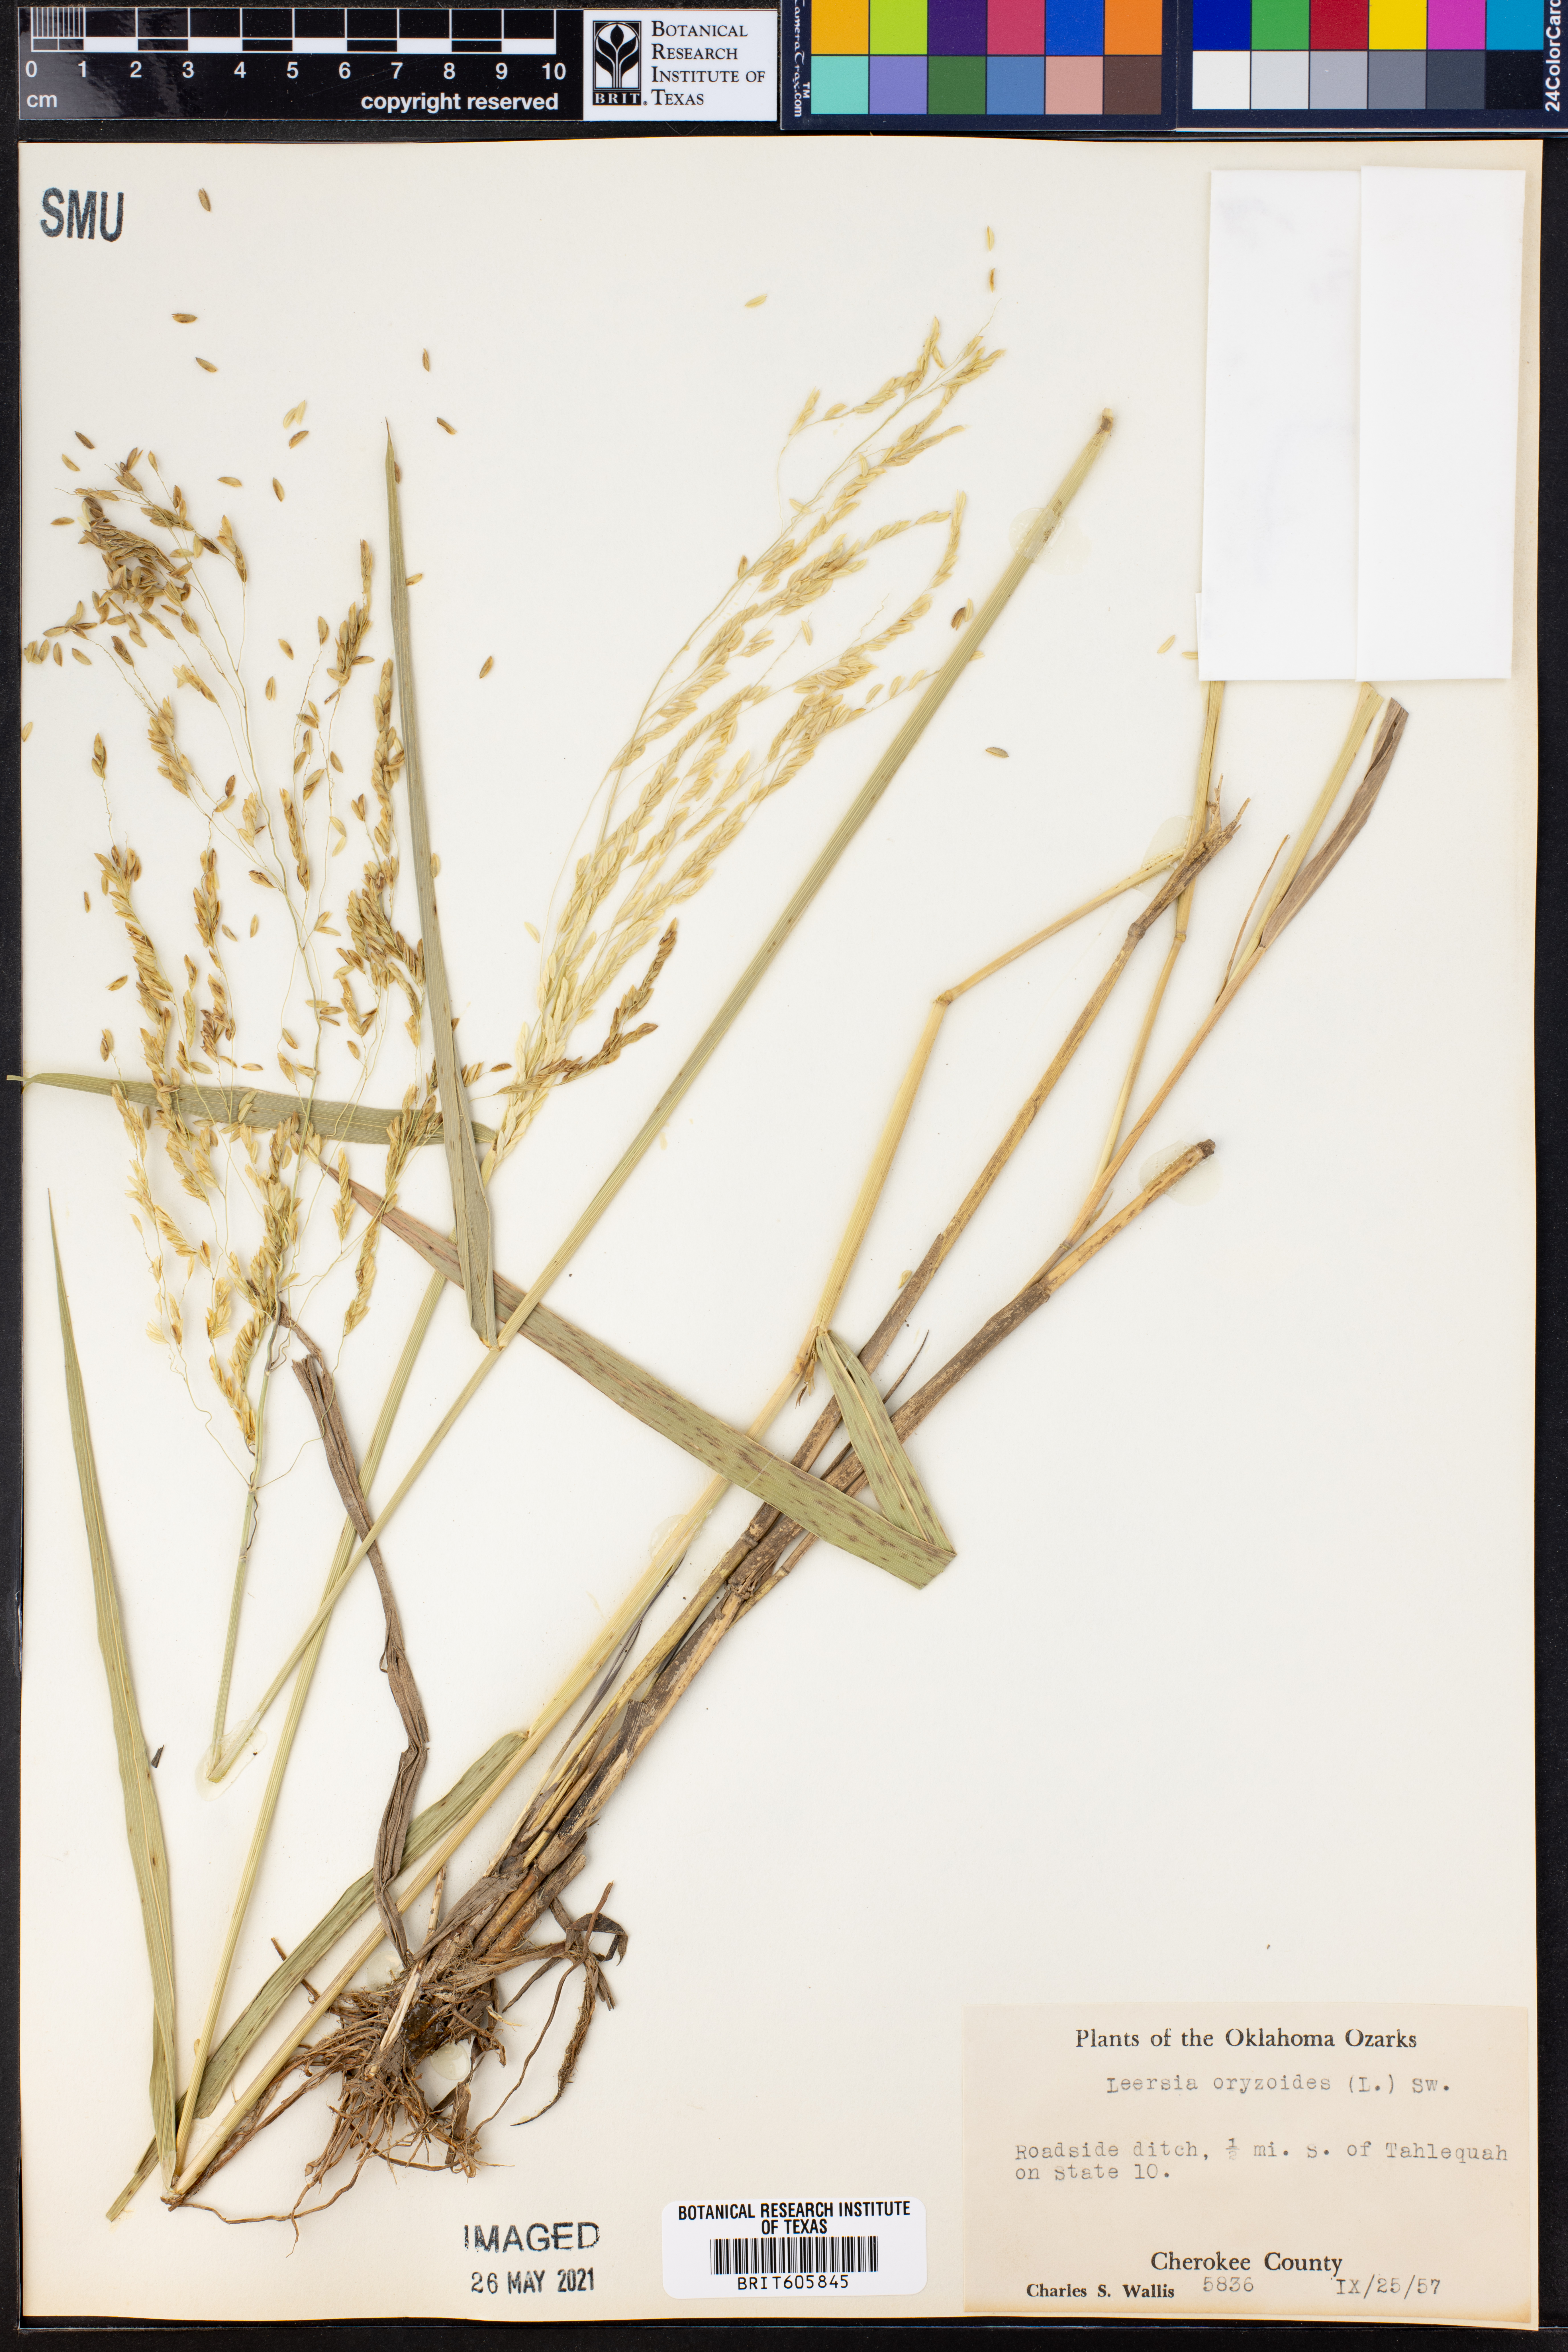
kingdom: Plantae
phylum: Tracheophyta
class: Liliopsida
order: Poales
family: Poaceae
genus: Leersia
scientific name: Leersia oryzoides
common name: Cut-grass
